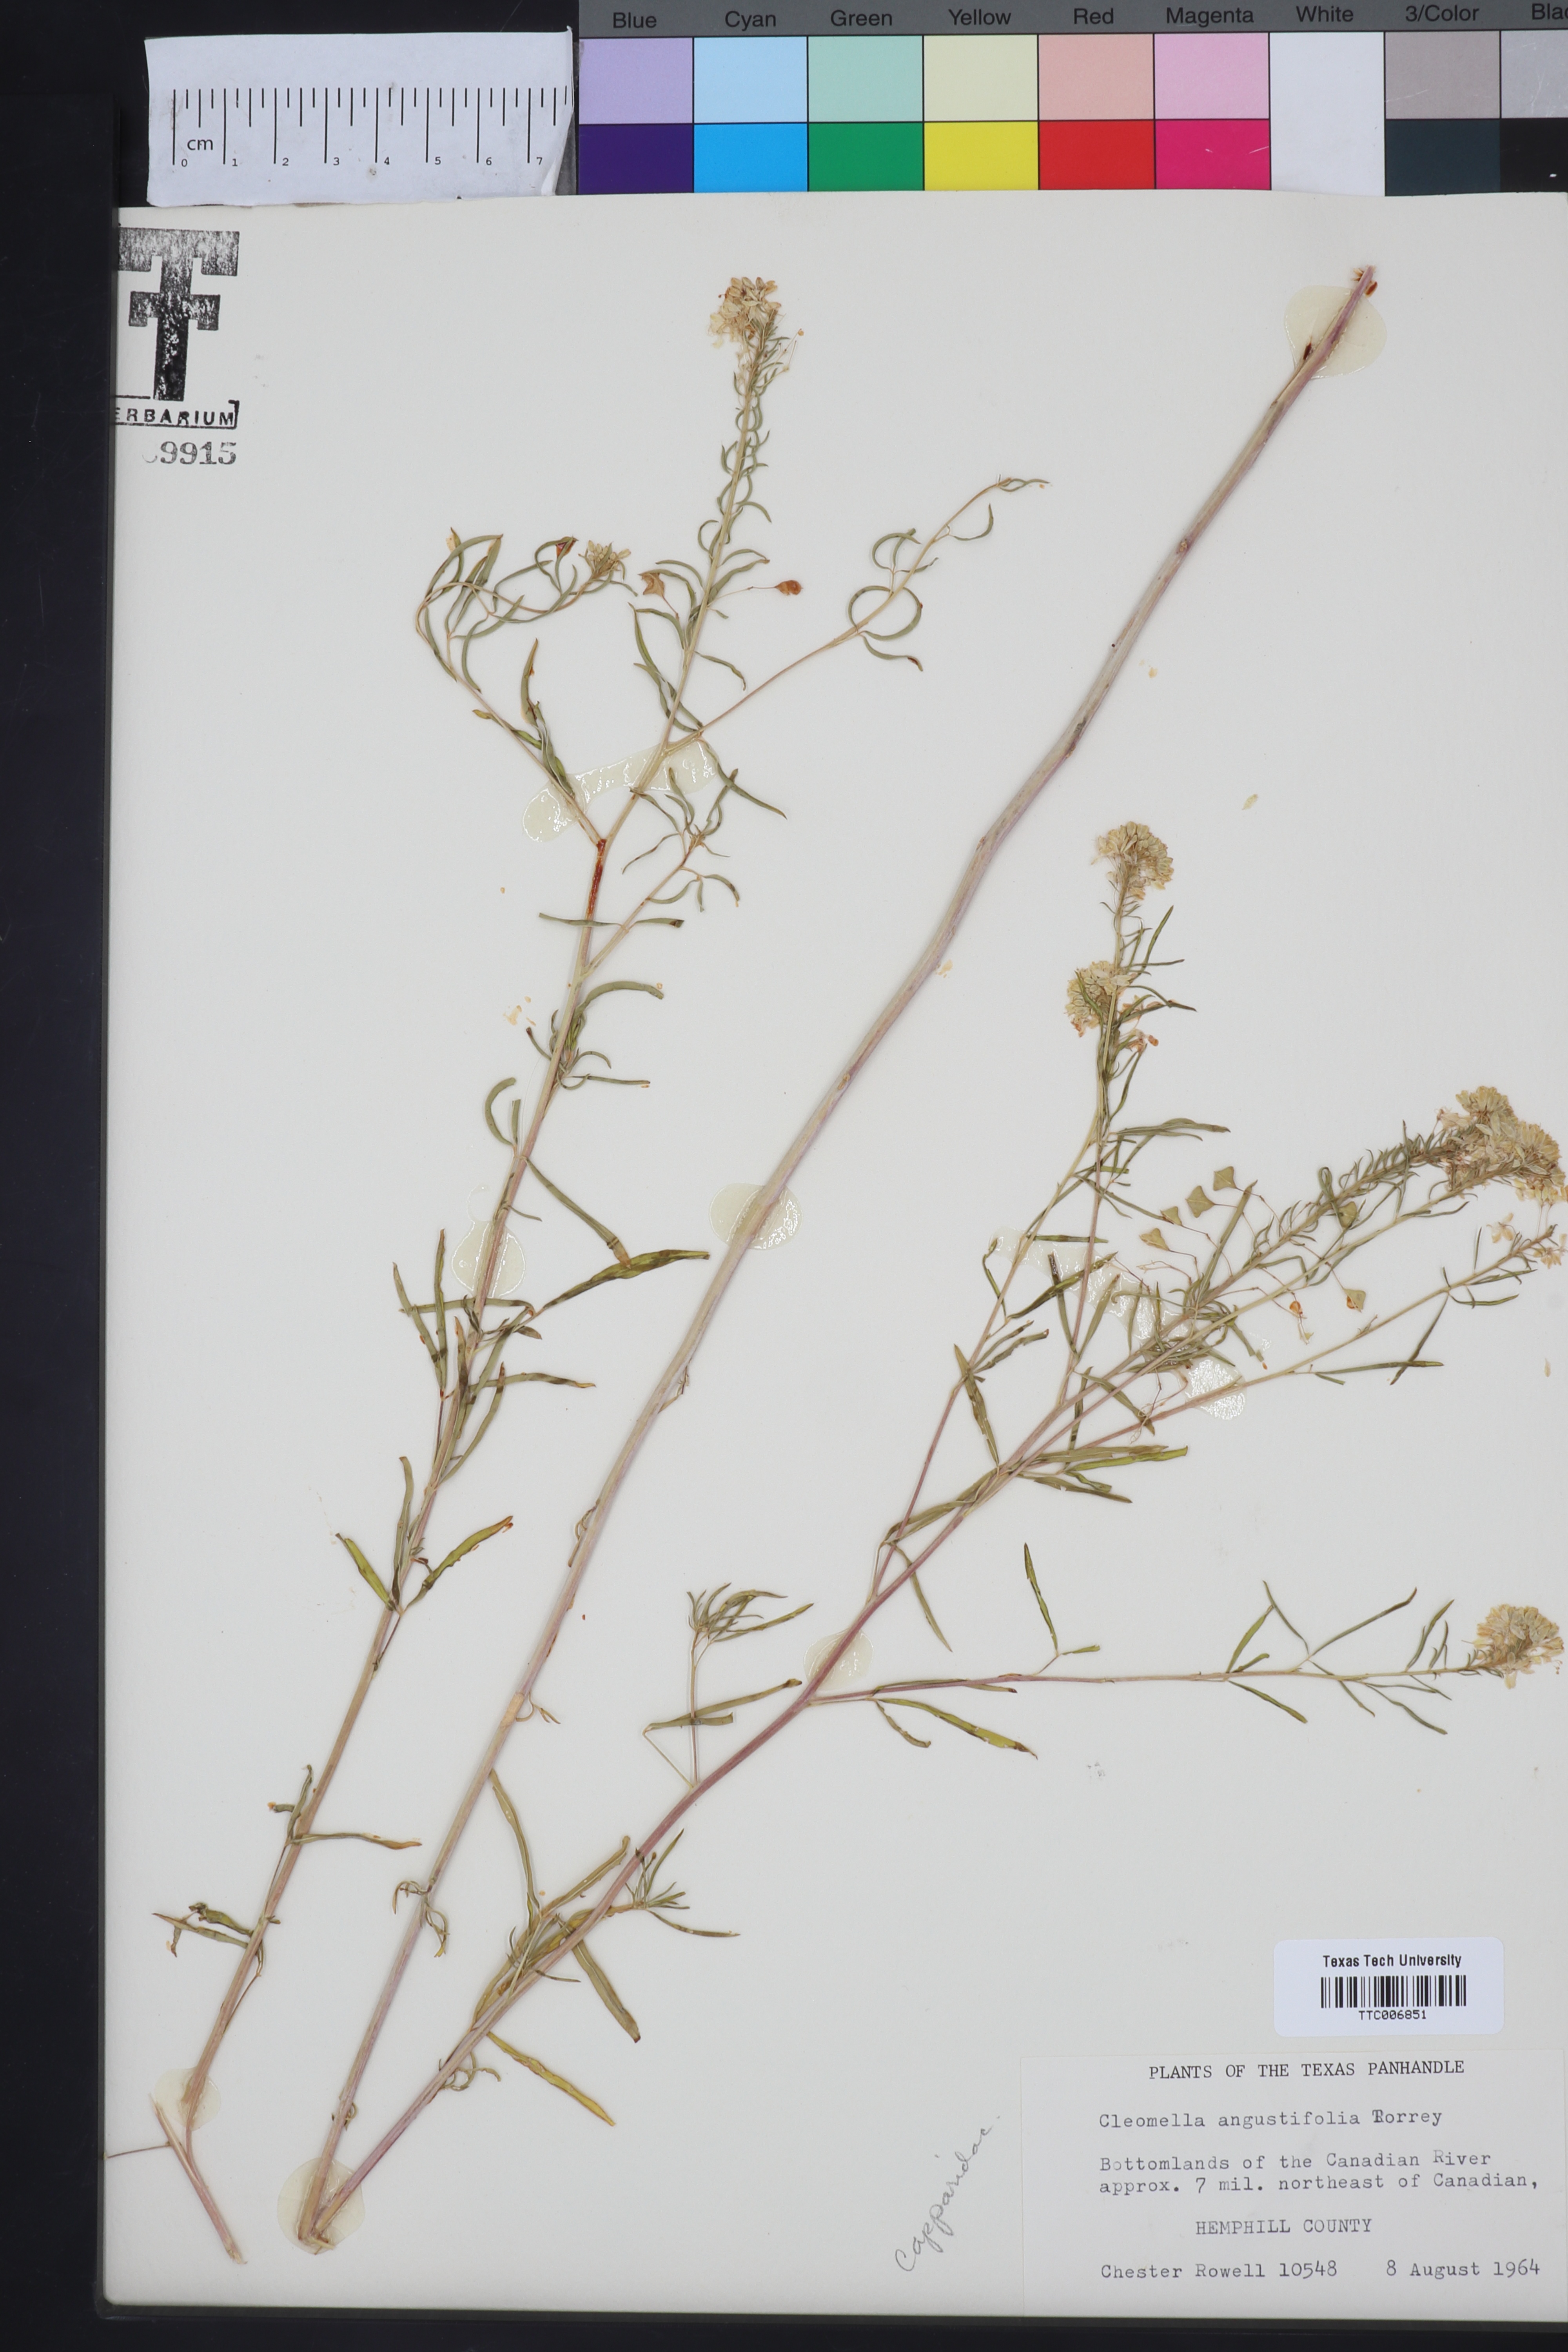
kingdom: Plantae
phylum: Tracheophyta
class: Magnoliopsida
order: Brassicales
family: Cleomaceae
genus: Cleomella
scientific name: Cleomella angustifolia
